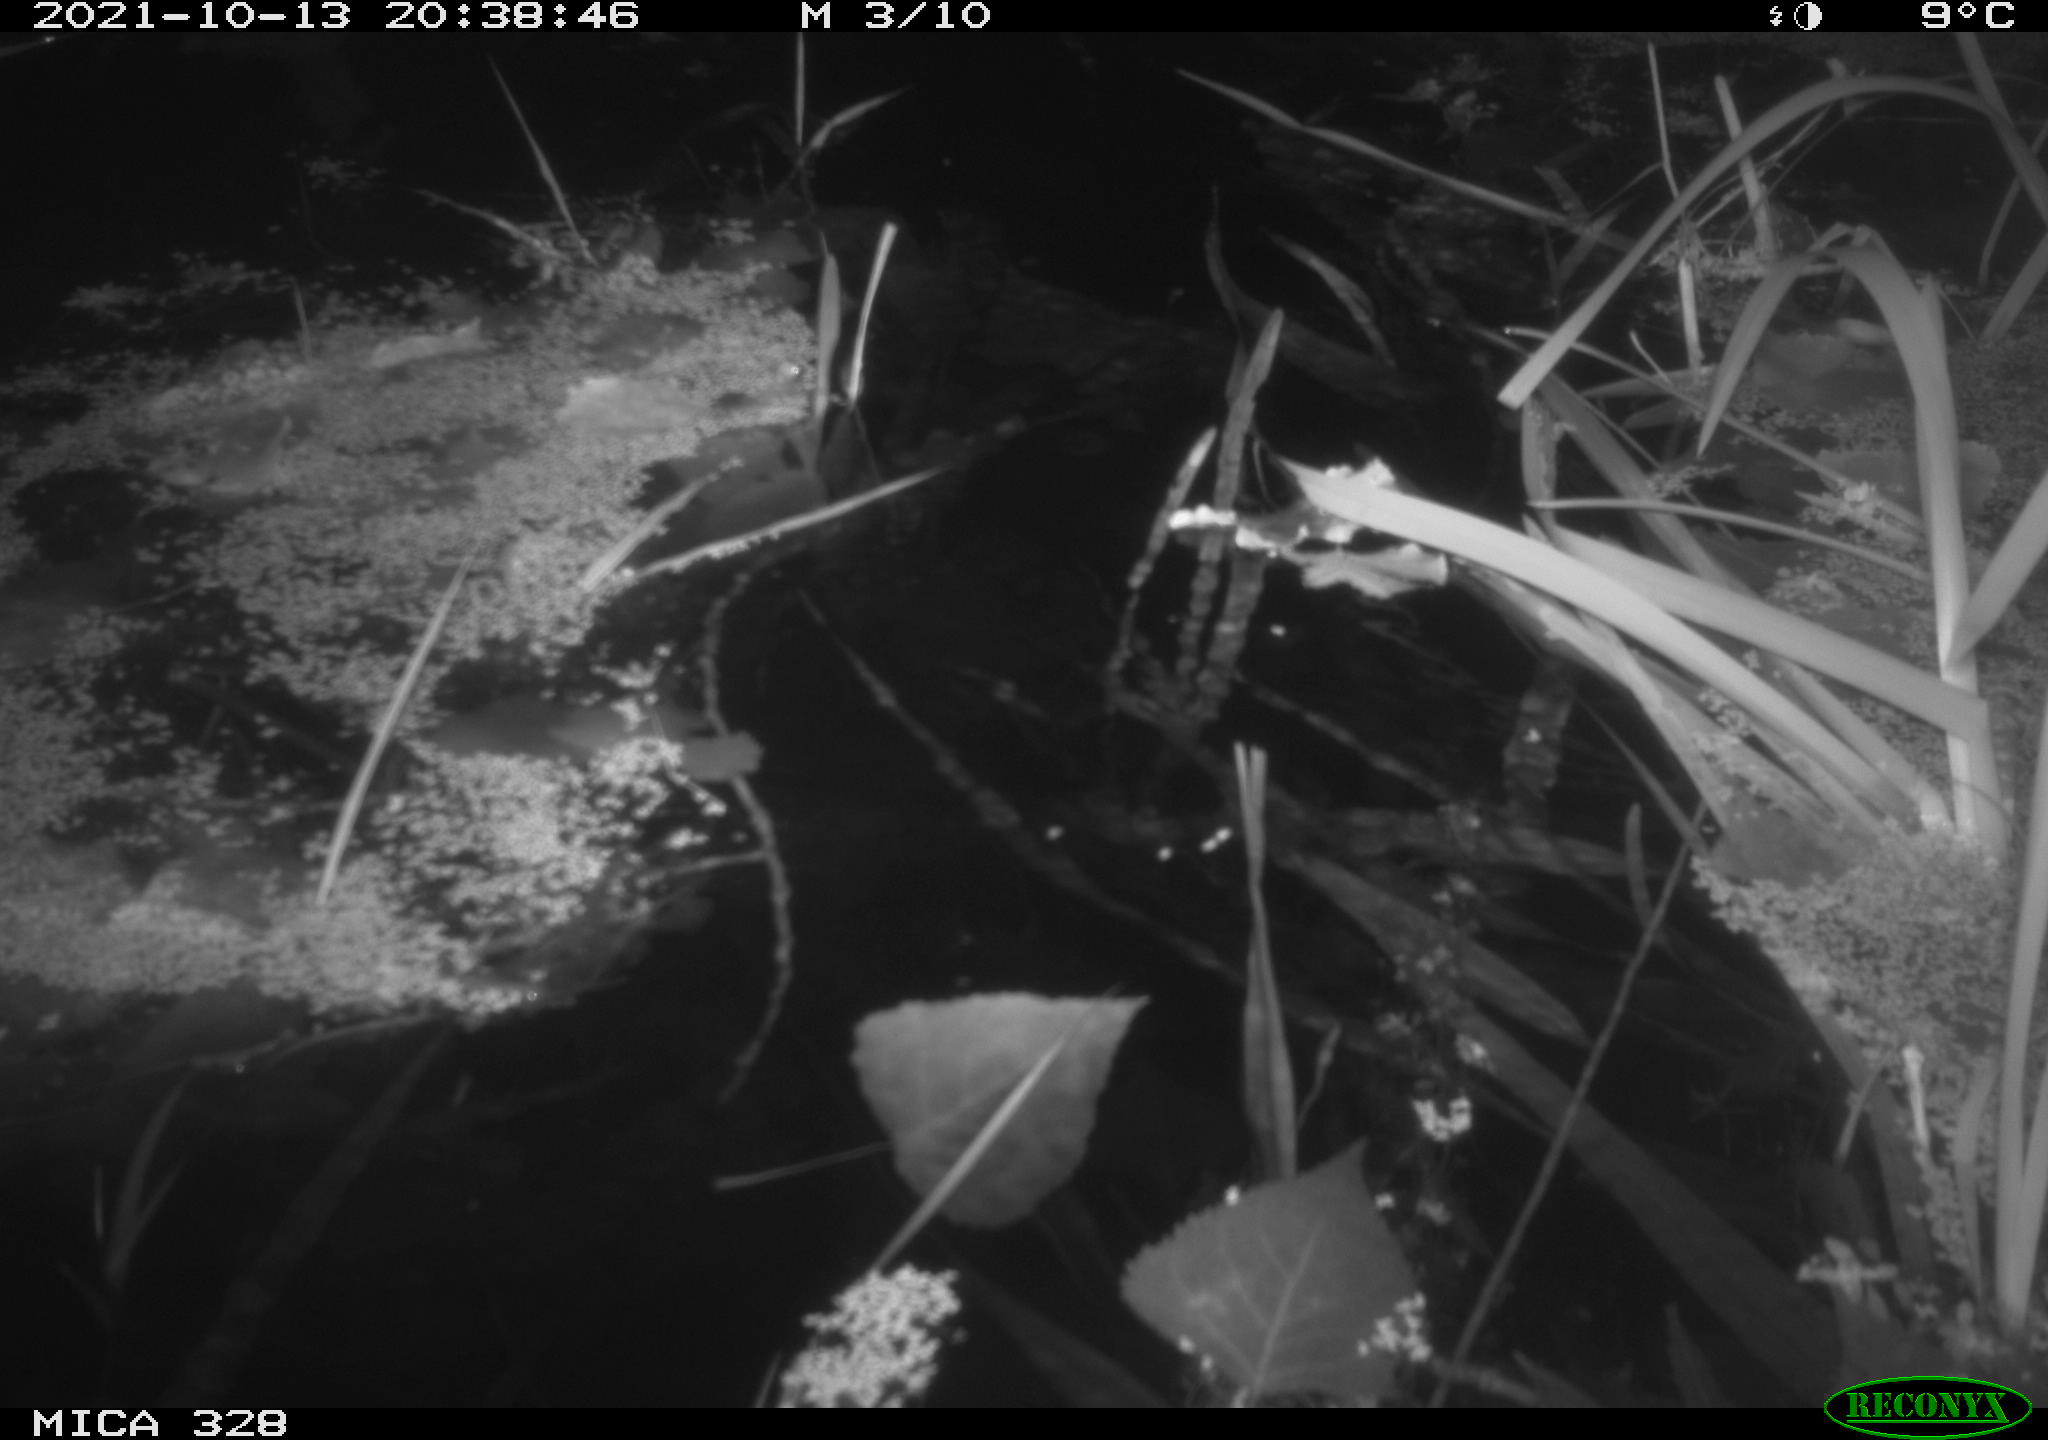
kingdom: Animalia
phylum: Chordata
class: Mammalia
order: Rodentia
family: Cricetidae
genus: Ondatra
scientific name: Ondatra zibethicus
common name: Muskrat
